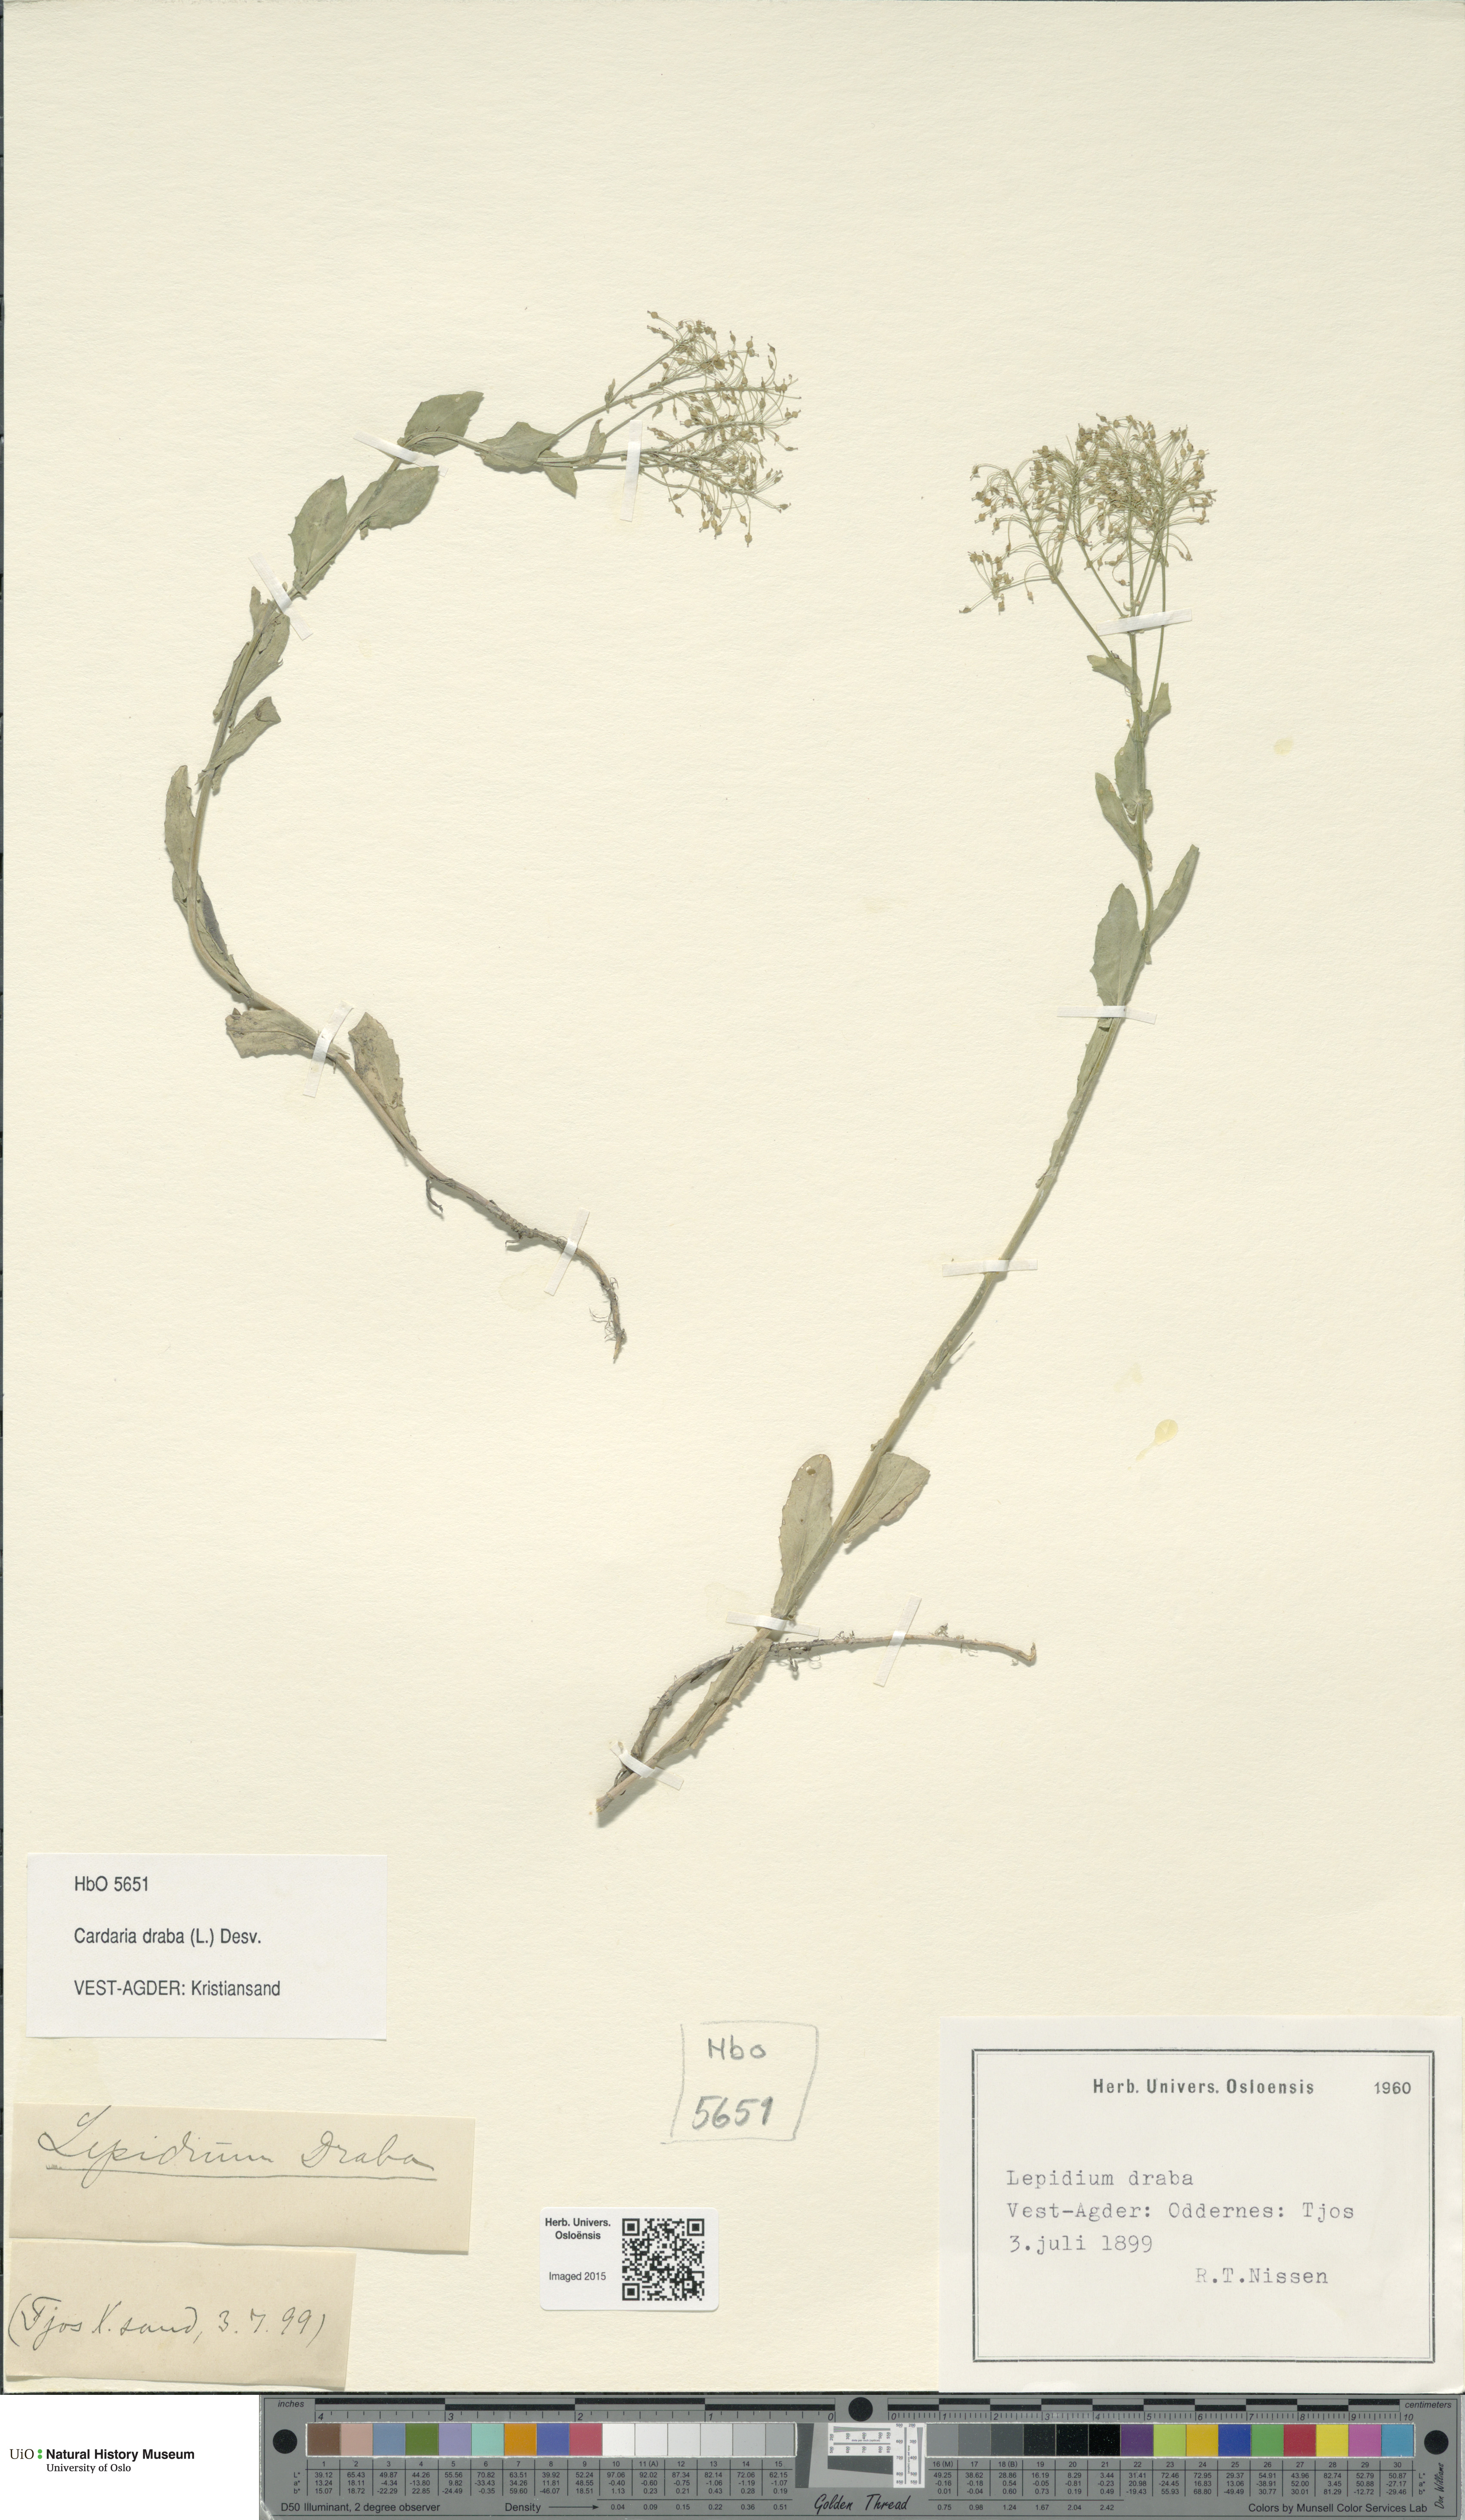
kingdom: Plantae
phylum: Tracheophyta
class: Magnoliopsida
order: Brassicales
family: Brassicaceae
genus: Lepidium
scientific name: Lepidium draba
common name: Hoary cress
